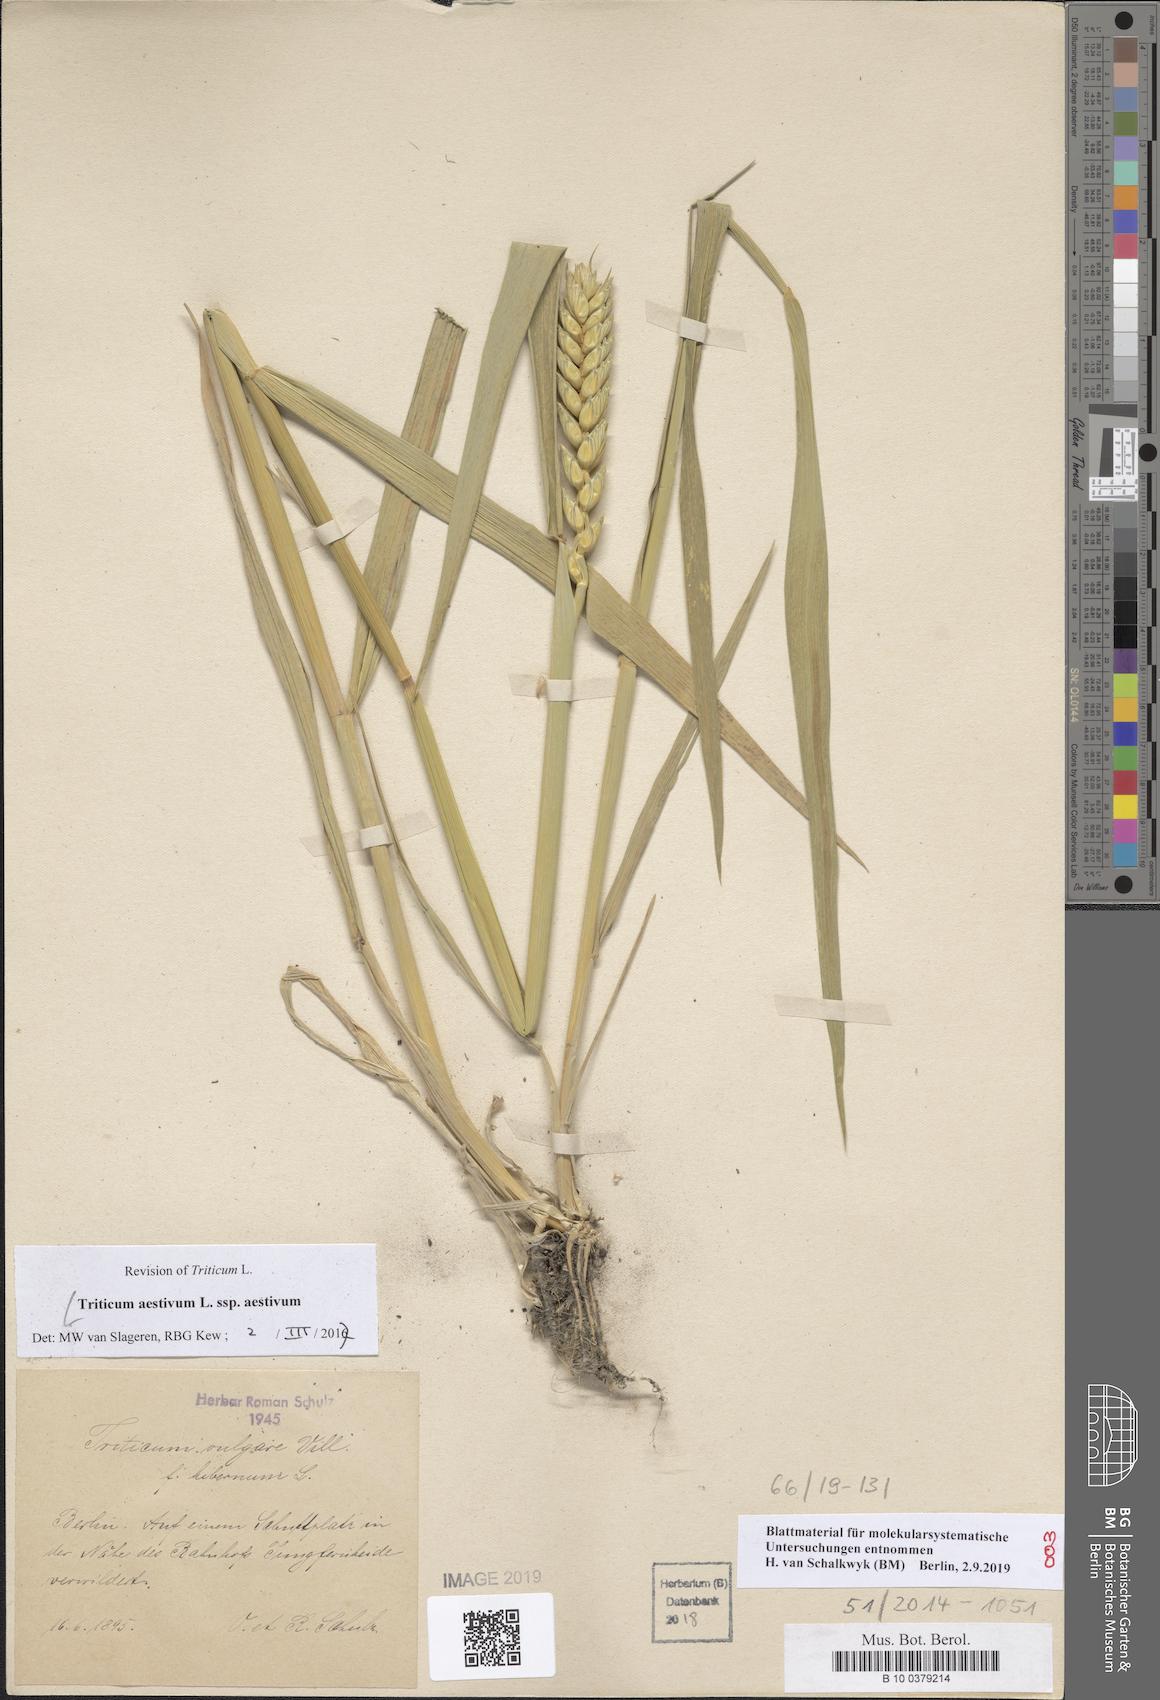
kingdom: Plantae
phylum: Tracheophyta
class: Liliopsida
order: Poales
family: Poaceae
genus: Triticum
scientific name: Triticum aestivum
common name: Common wheat
